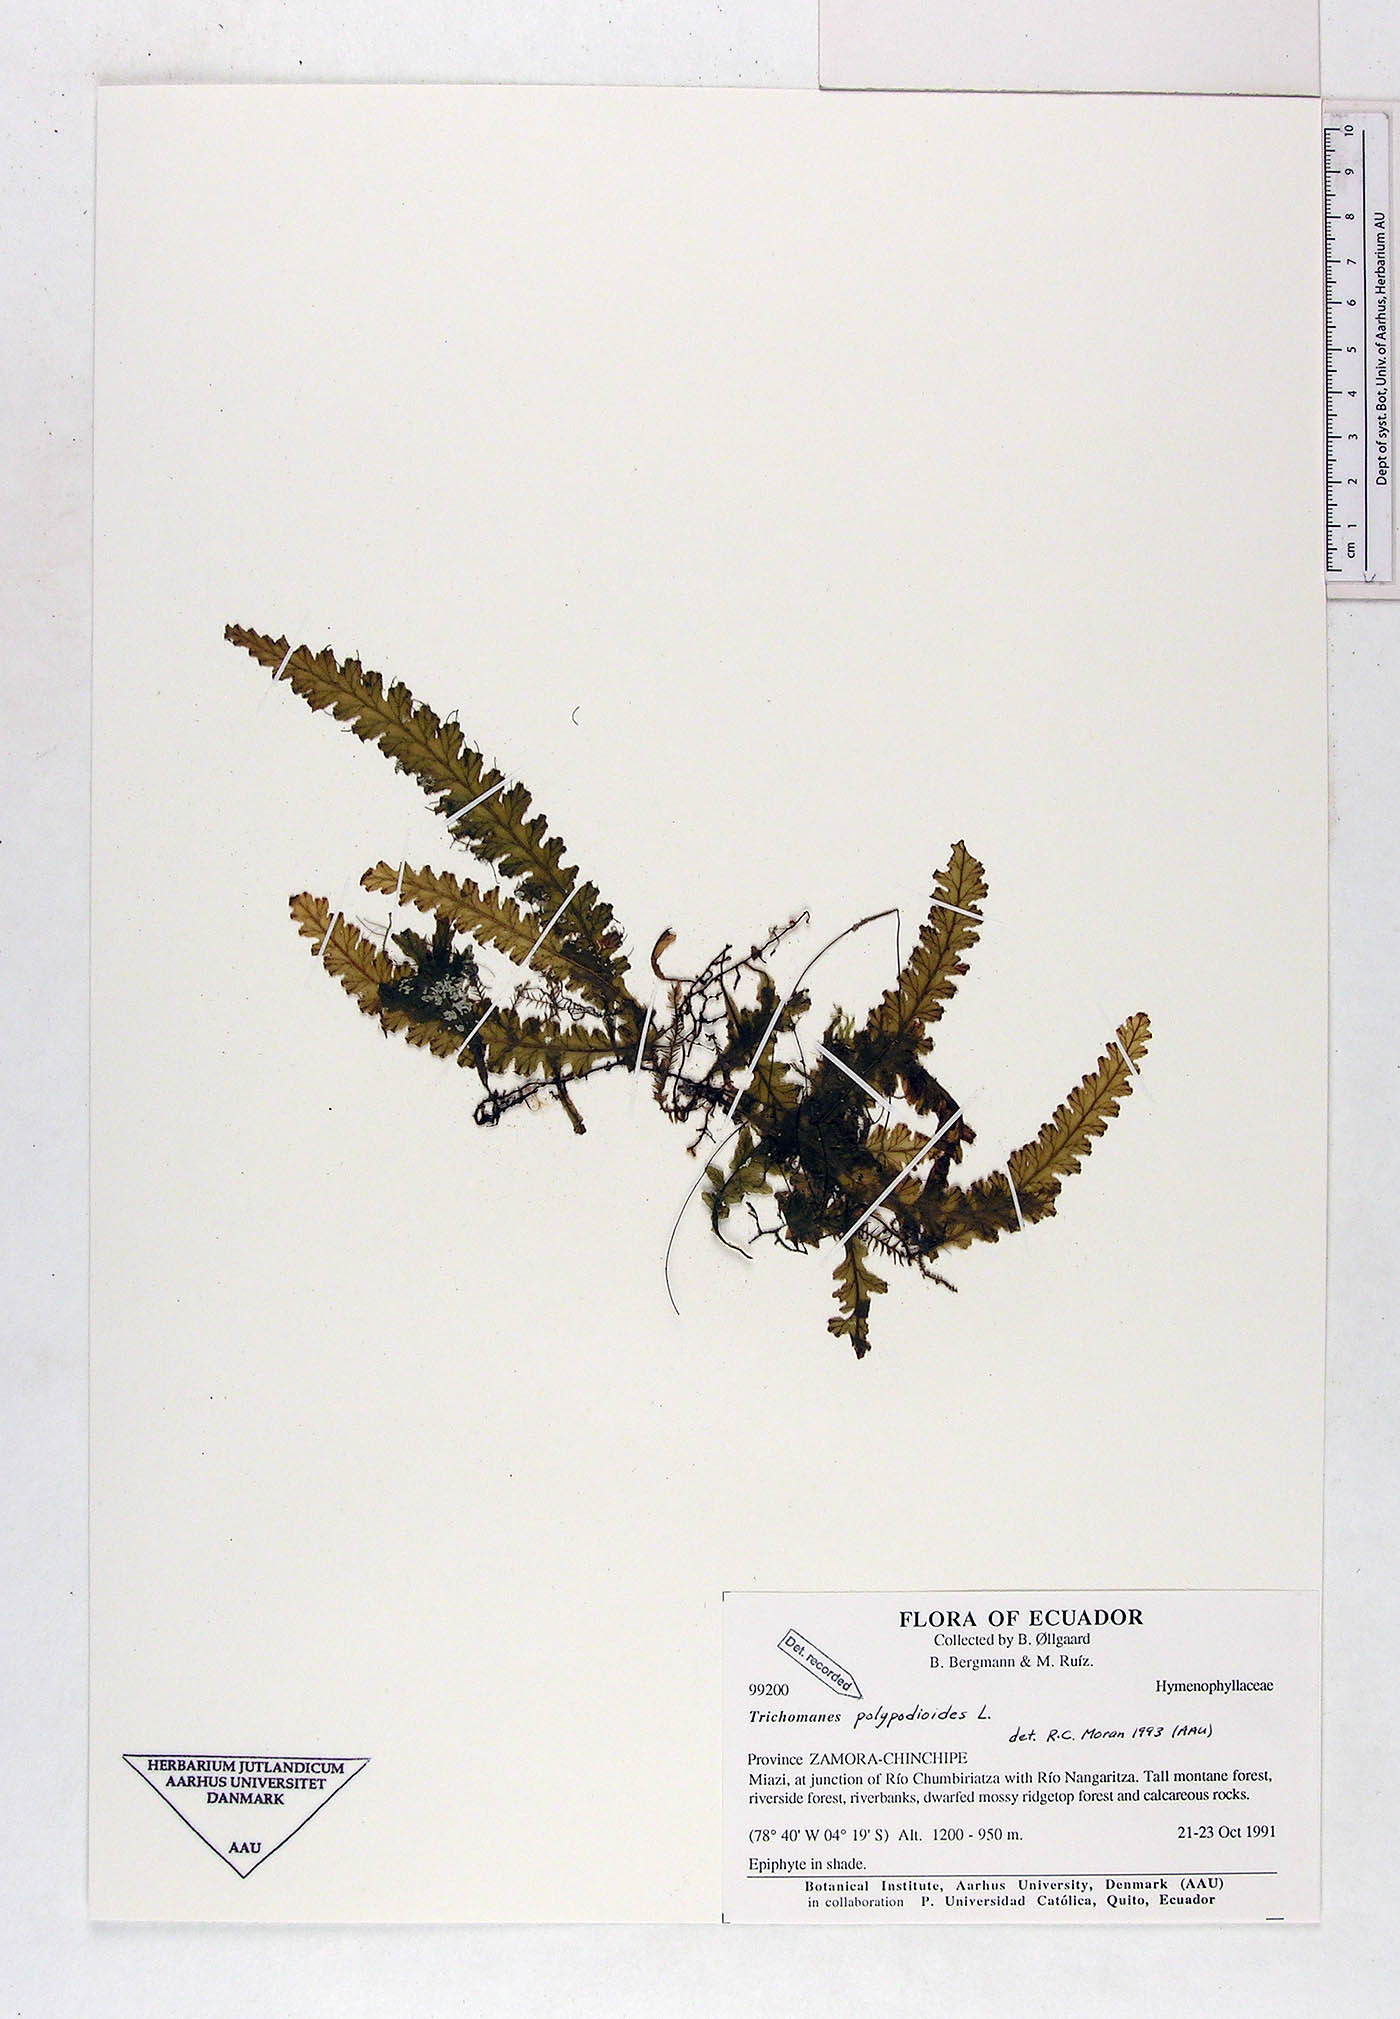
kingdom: Plantae
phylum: Tracheophyta
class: Polypodiopsida
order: Hymenophyllales
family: Hymenophyllaceae
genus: Trichomanes
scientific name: Trichomanes polypodioides
